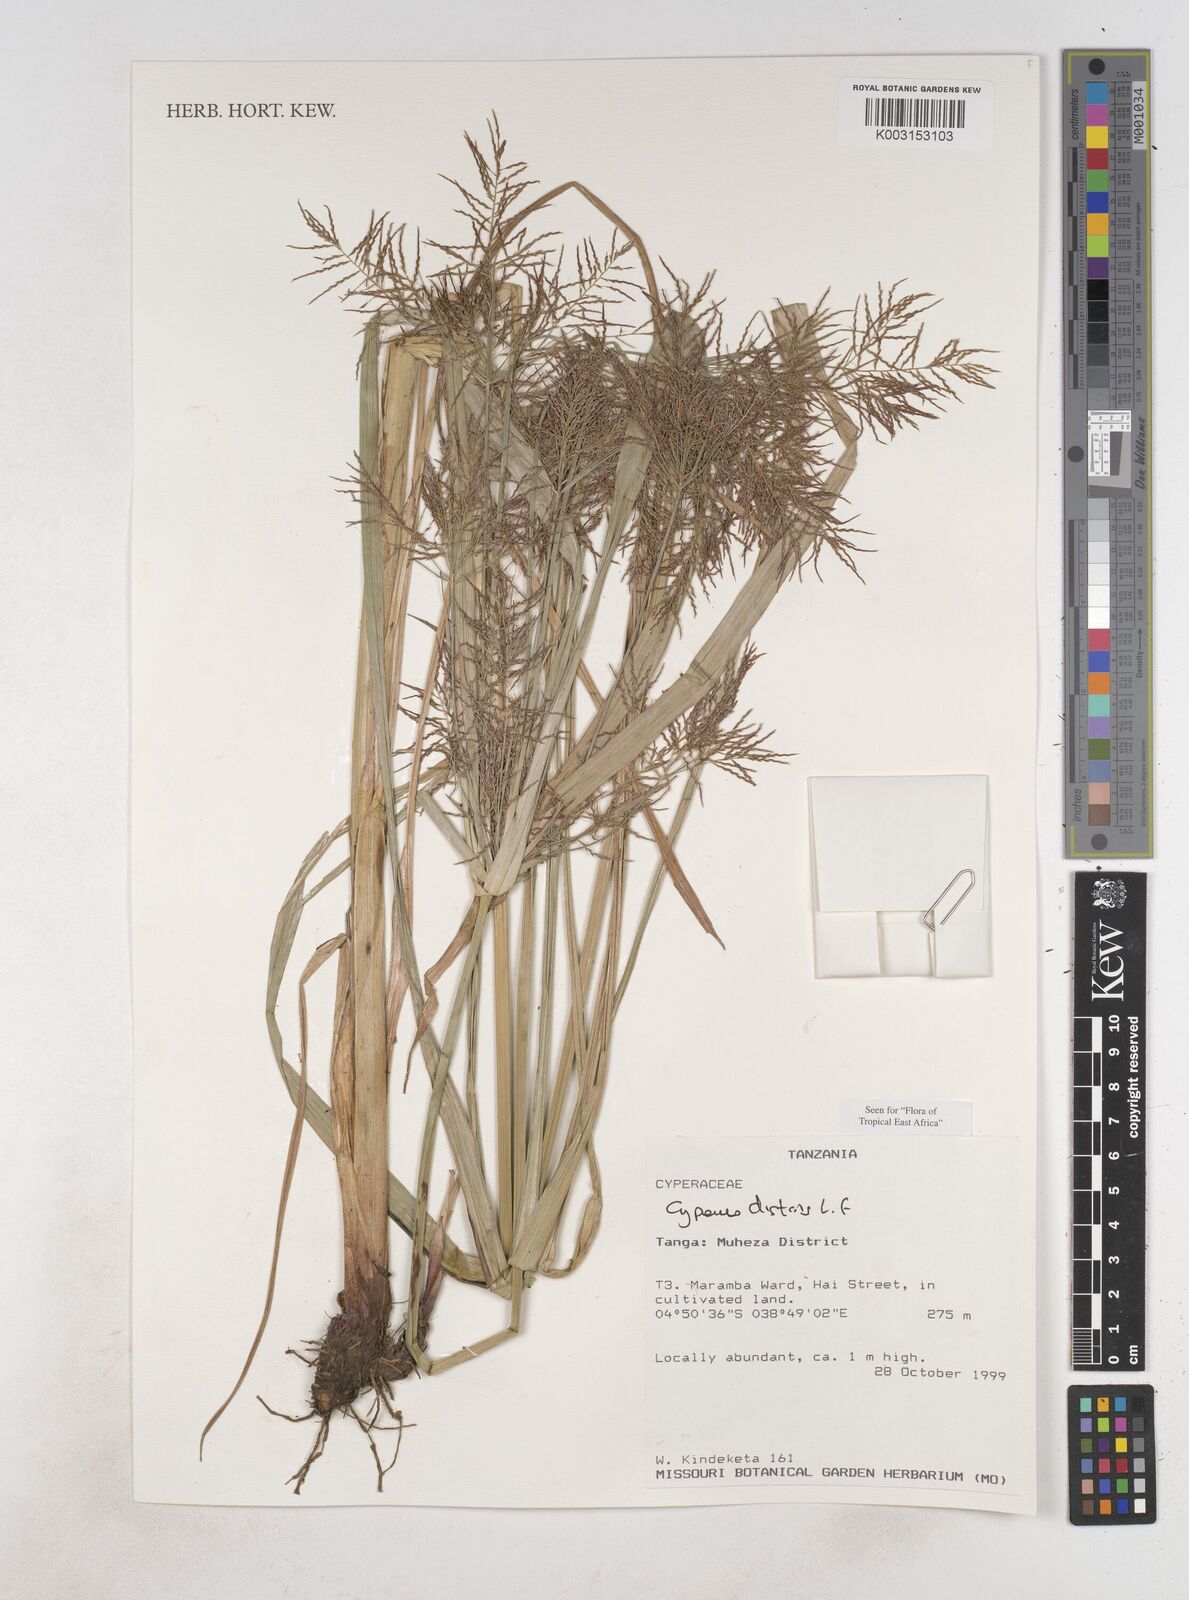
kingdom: Plantae
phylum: Tracheophyta
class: Liliopsida
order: Poales
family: Cyperaceae
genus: Cyperus
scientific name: Cyperus distans
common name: Slender cyperus
